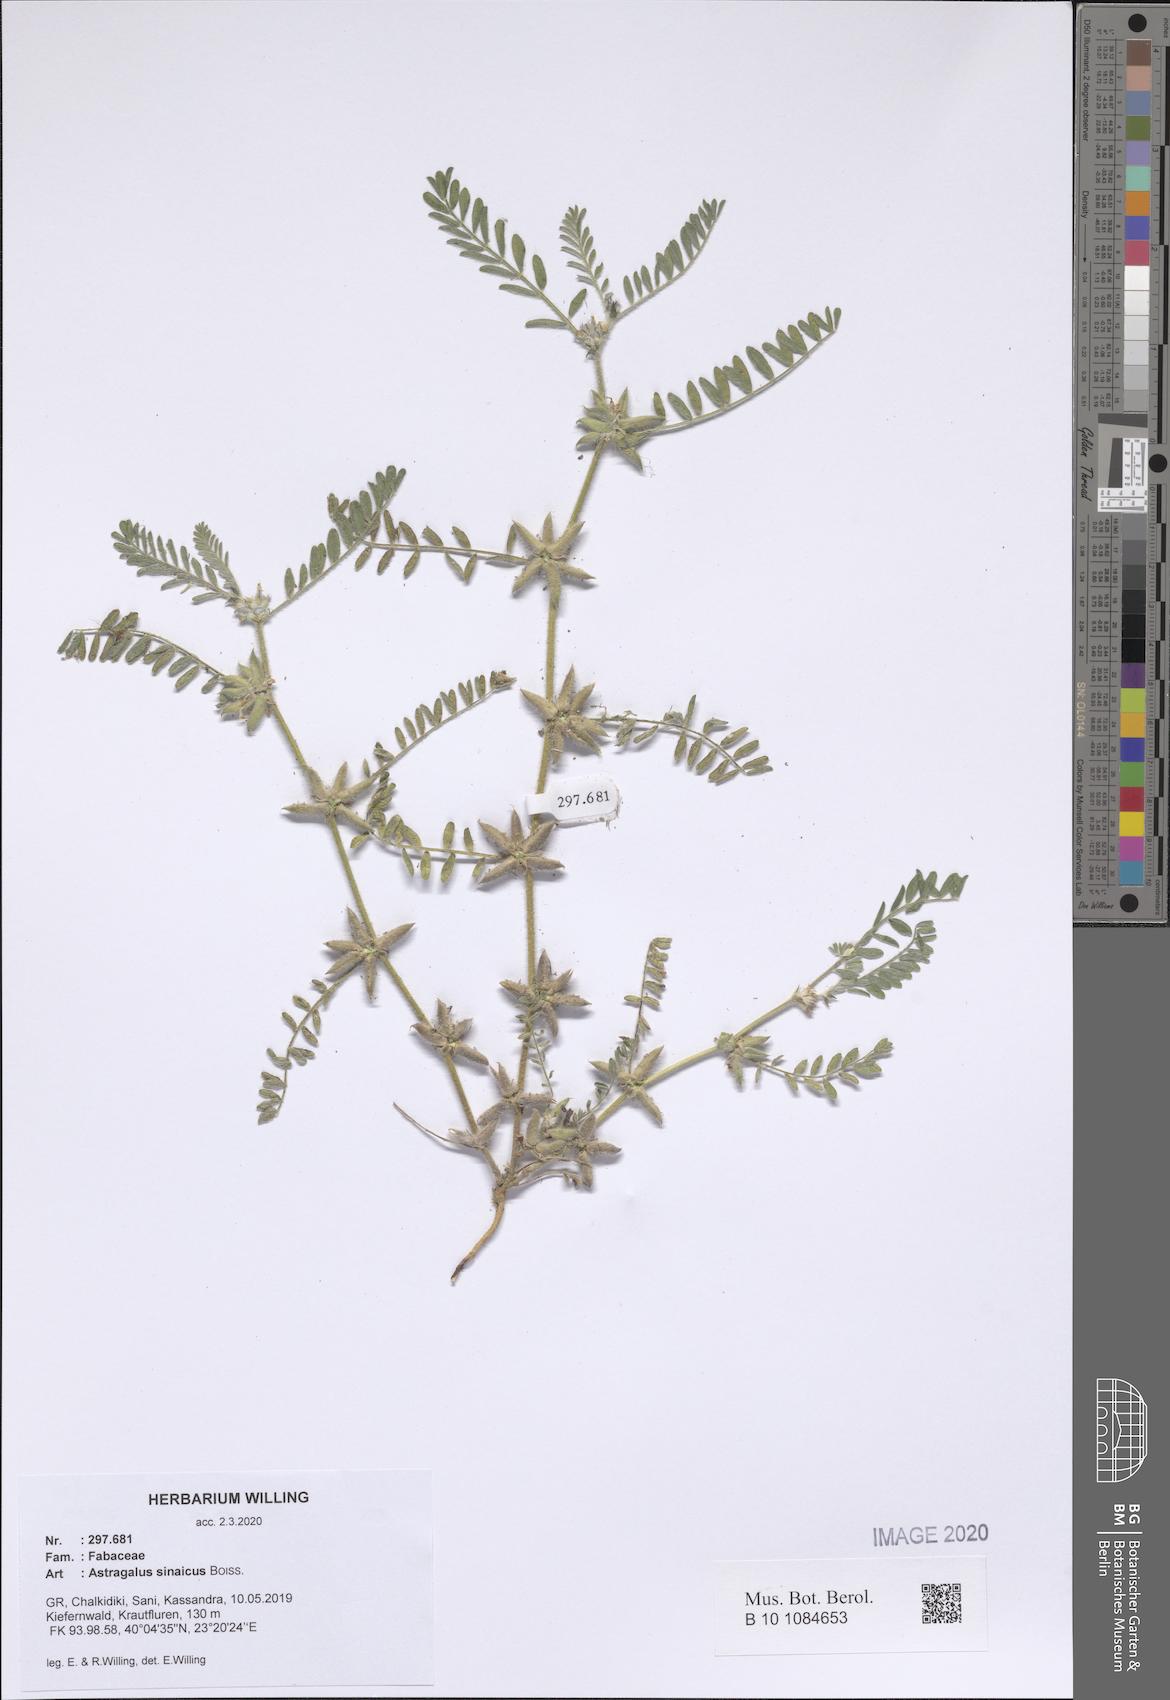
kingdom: Plantae
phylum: Tracheophyta
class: Magnoliopsida
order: Fabales
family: Fabaceae
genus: Astragalus
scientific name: Astragalus sinaicus
